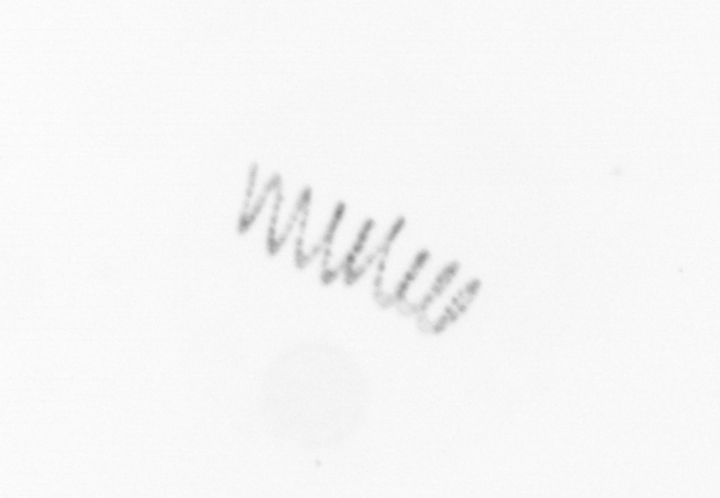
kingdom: Chromista
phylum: Ochrophyta
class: Bacillariophyceae
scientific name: Bacillariophyceae
